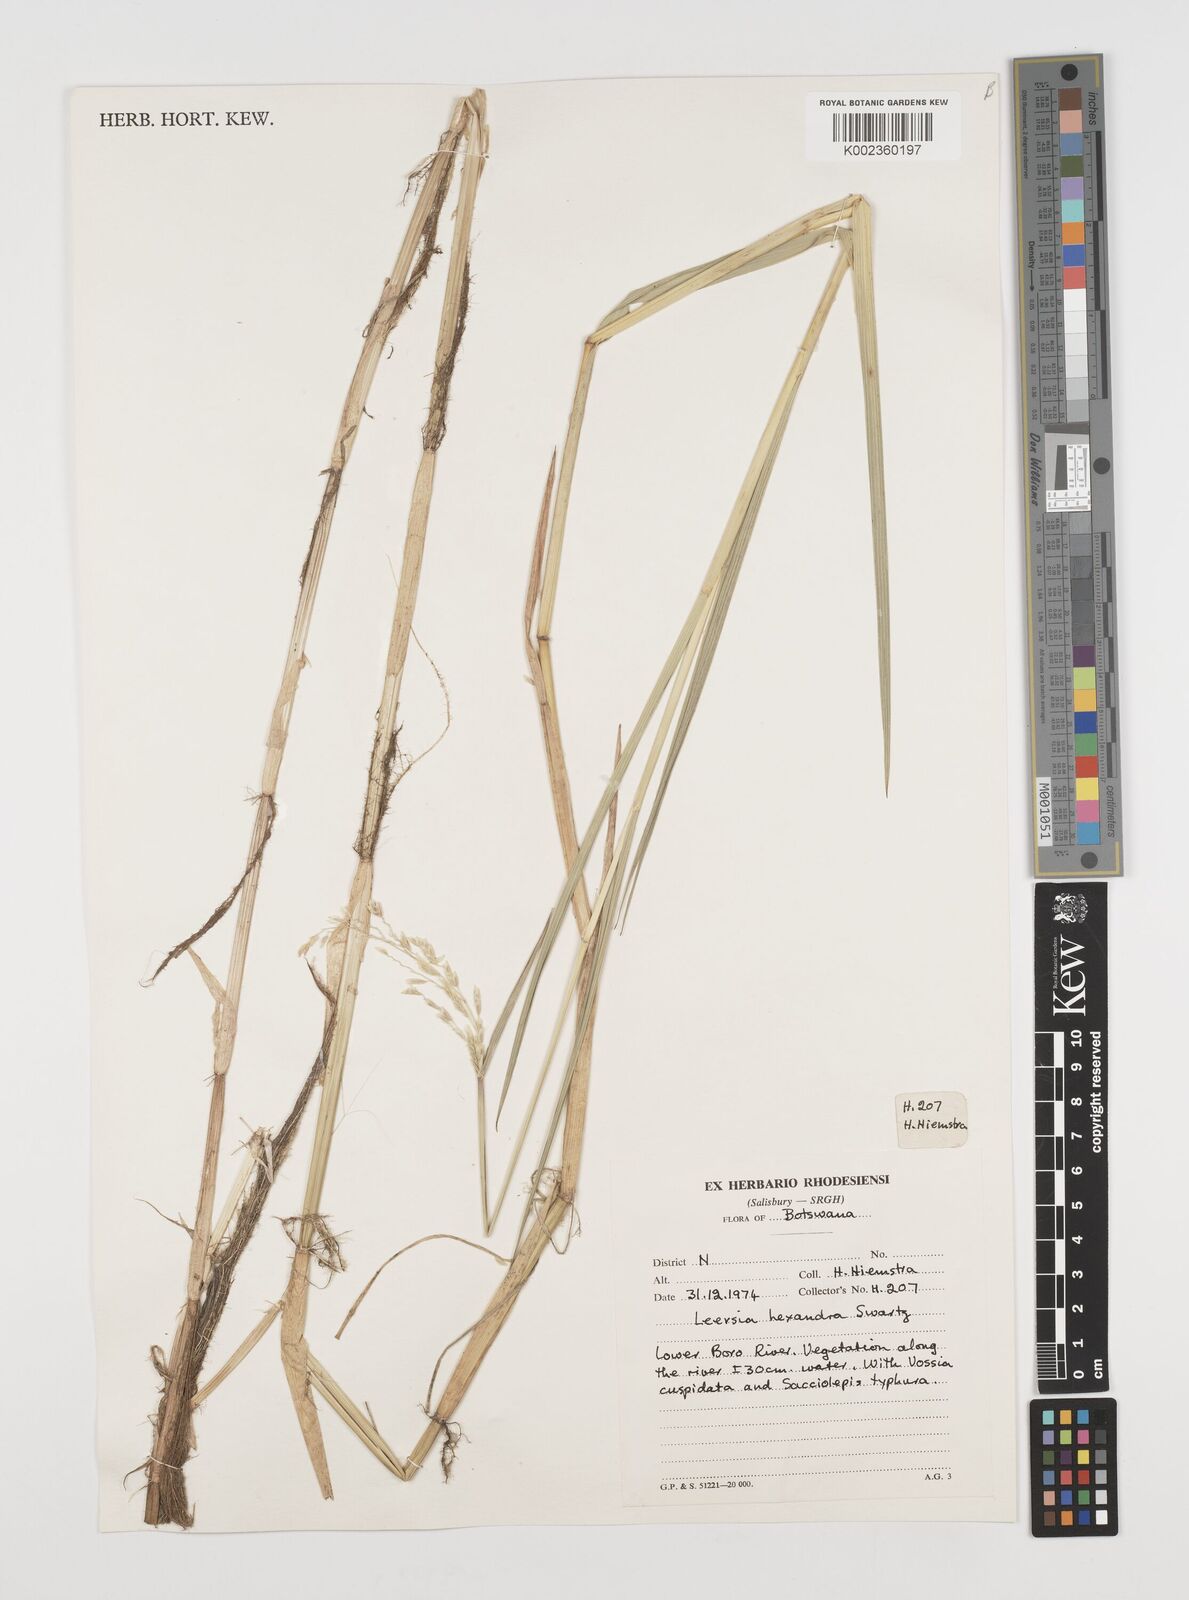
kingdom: Plantae
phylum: Tracheophyta
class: Liliopsida
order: Poales
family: Poaceae
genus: Leersia
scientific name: Leersia hexandra
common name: Southern cut grass
